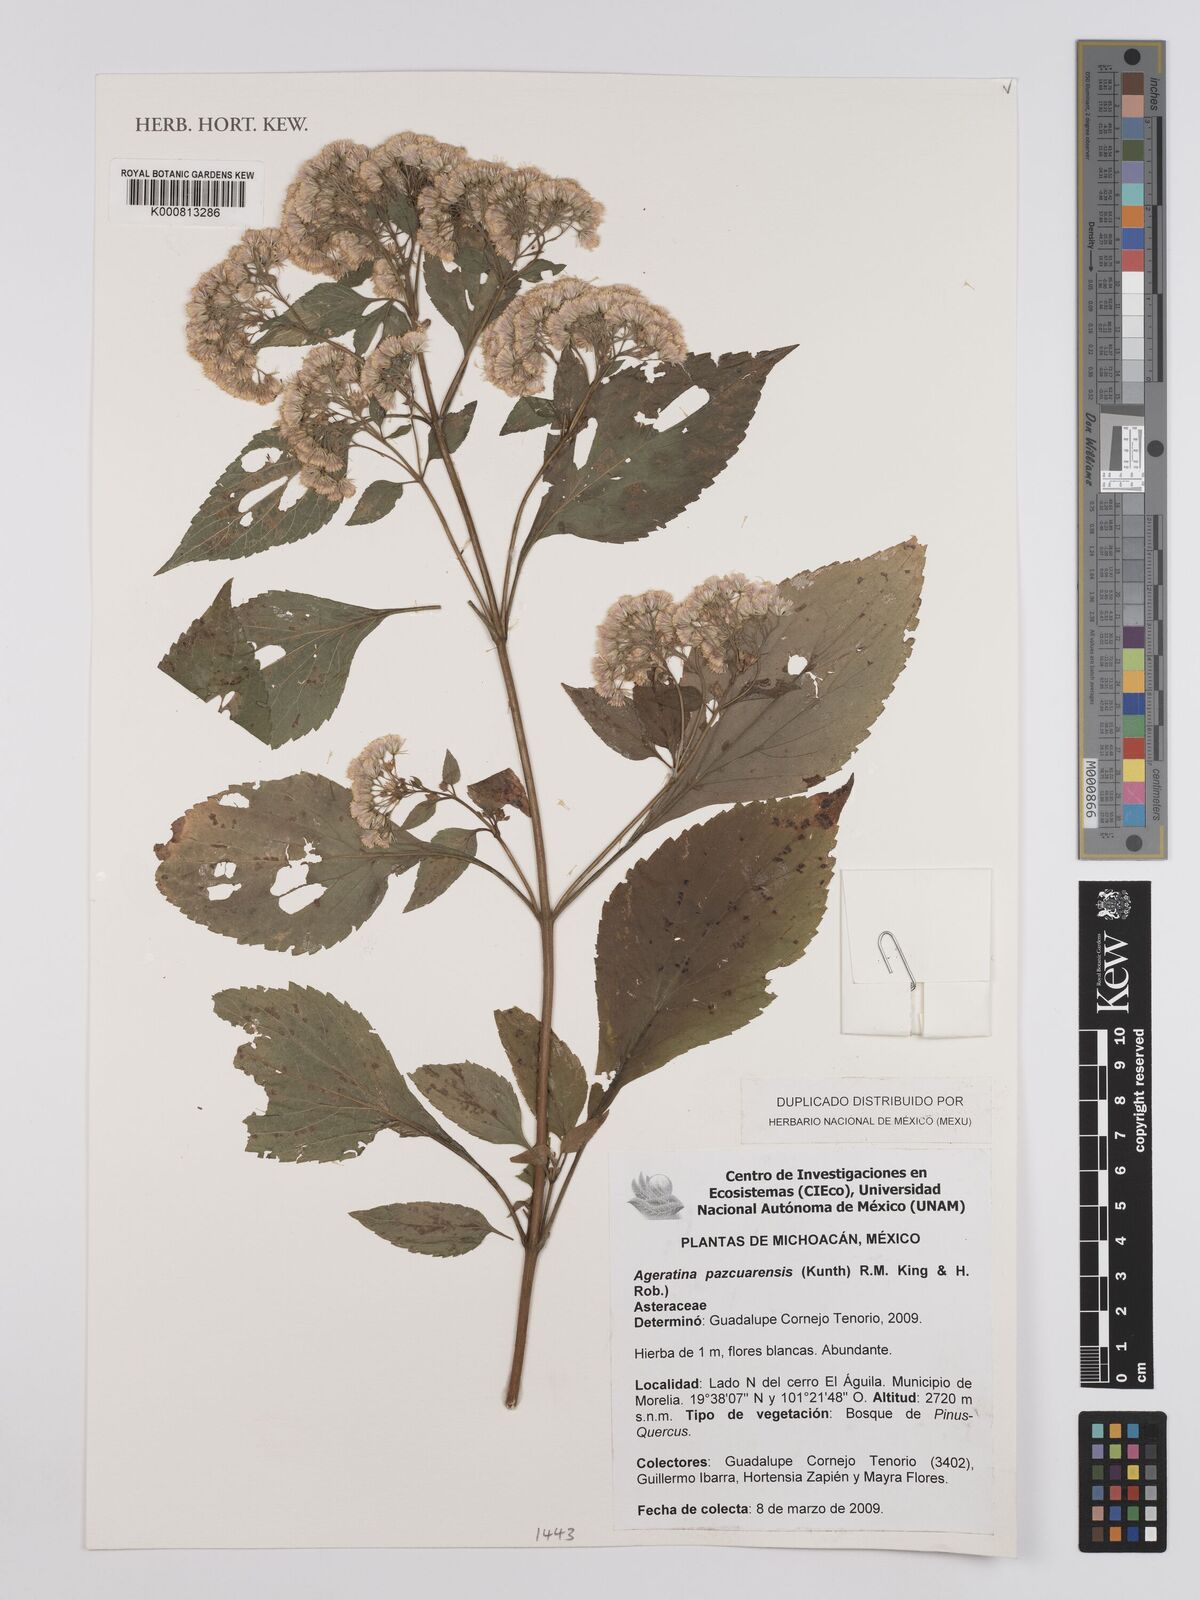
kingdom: Plantae
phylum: Tracheophyta
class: Magnoliopsida
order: Asterales
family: Asteraceae
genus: Ageratina
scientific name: Ageratina pazcuarensis
